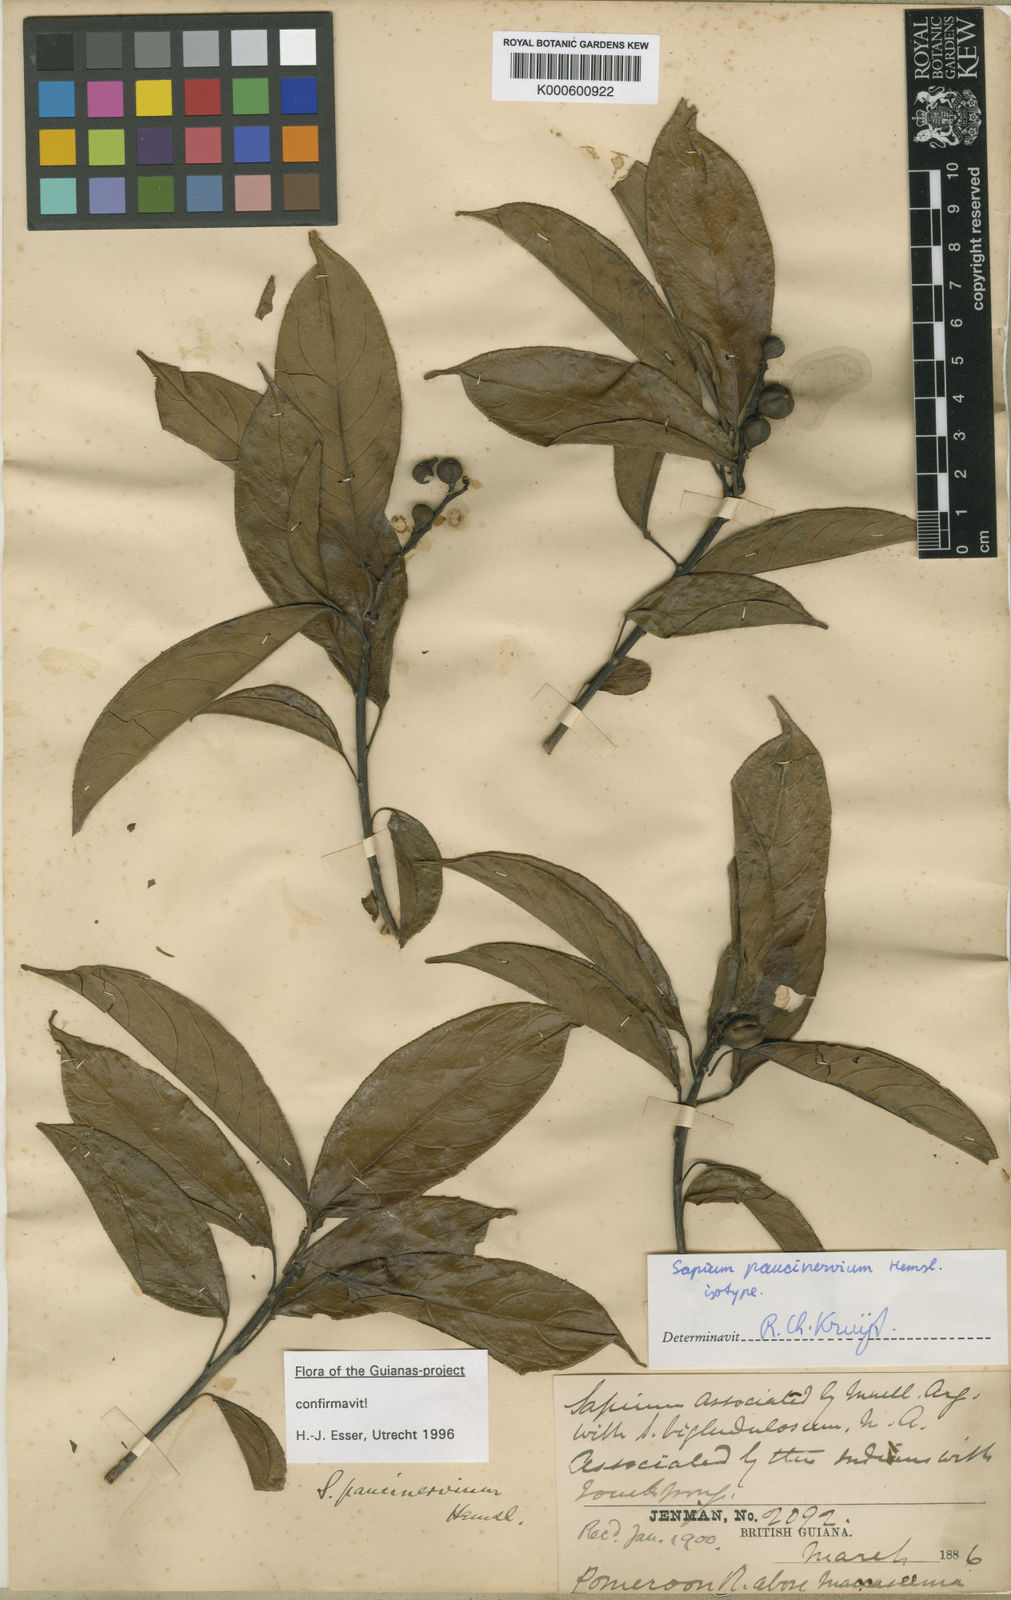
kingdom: Plantae
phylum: Tracheophyta
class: Magnoliopsida
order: Malpighiales
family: Euphorbiaceae
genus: Sapium
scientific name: Sapium paucinervium
